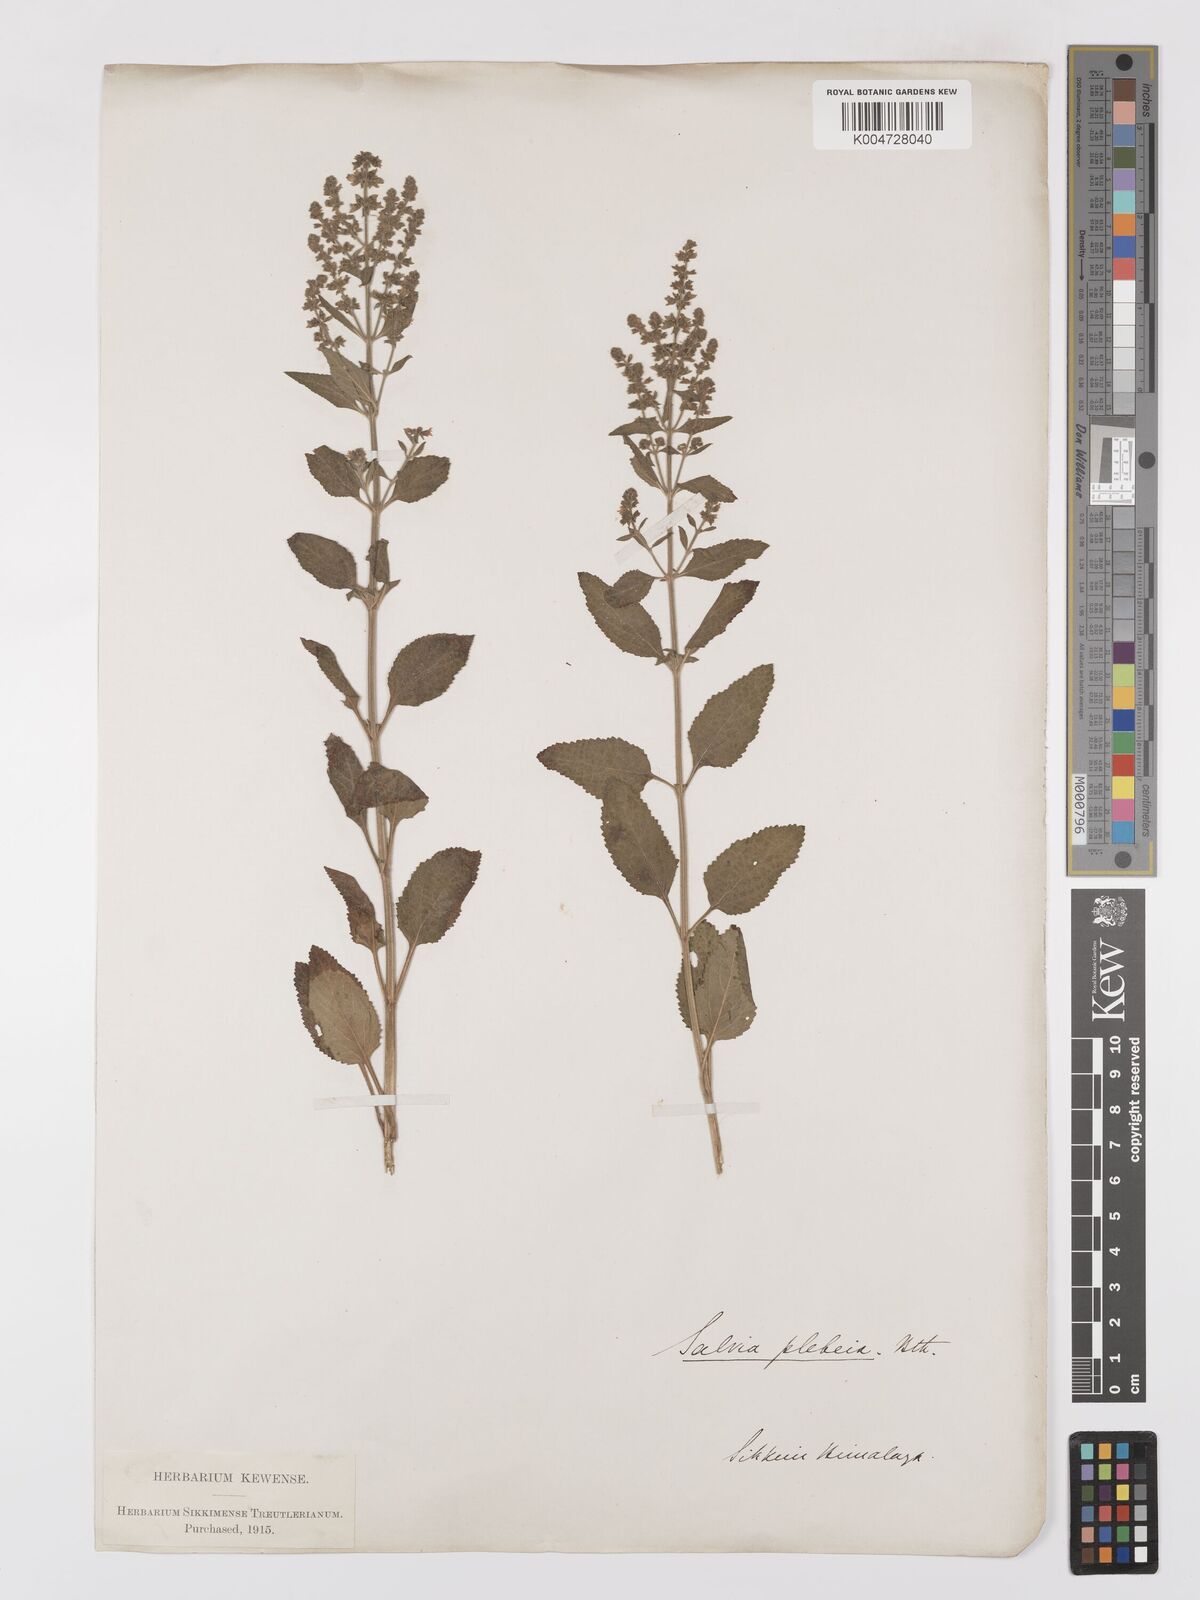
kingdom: Plantae
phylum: Tracheophyta
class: Magnoliopsida
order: Lamiales
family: Lamiaceae
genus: Salvia
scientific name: Salvia plebeia
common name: Australian sage
